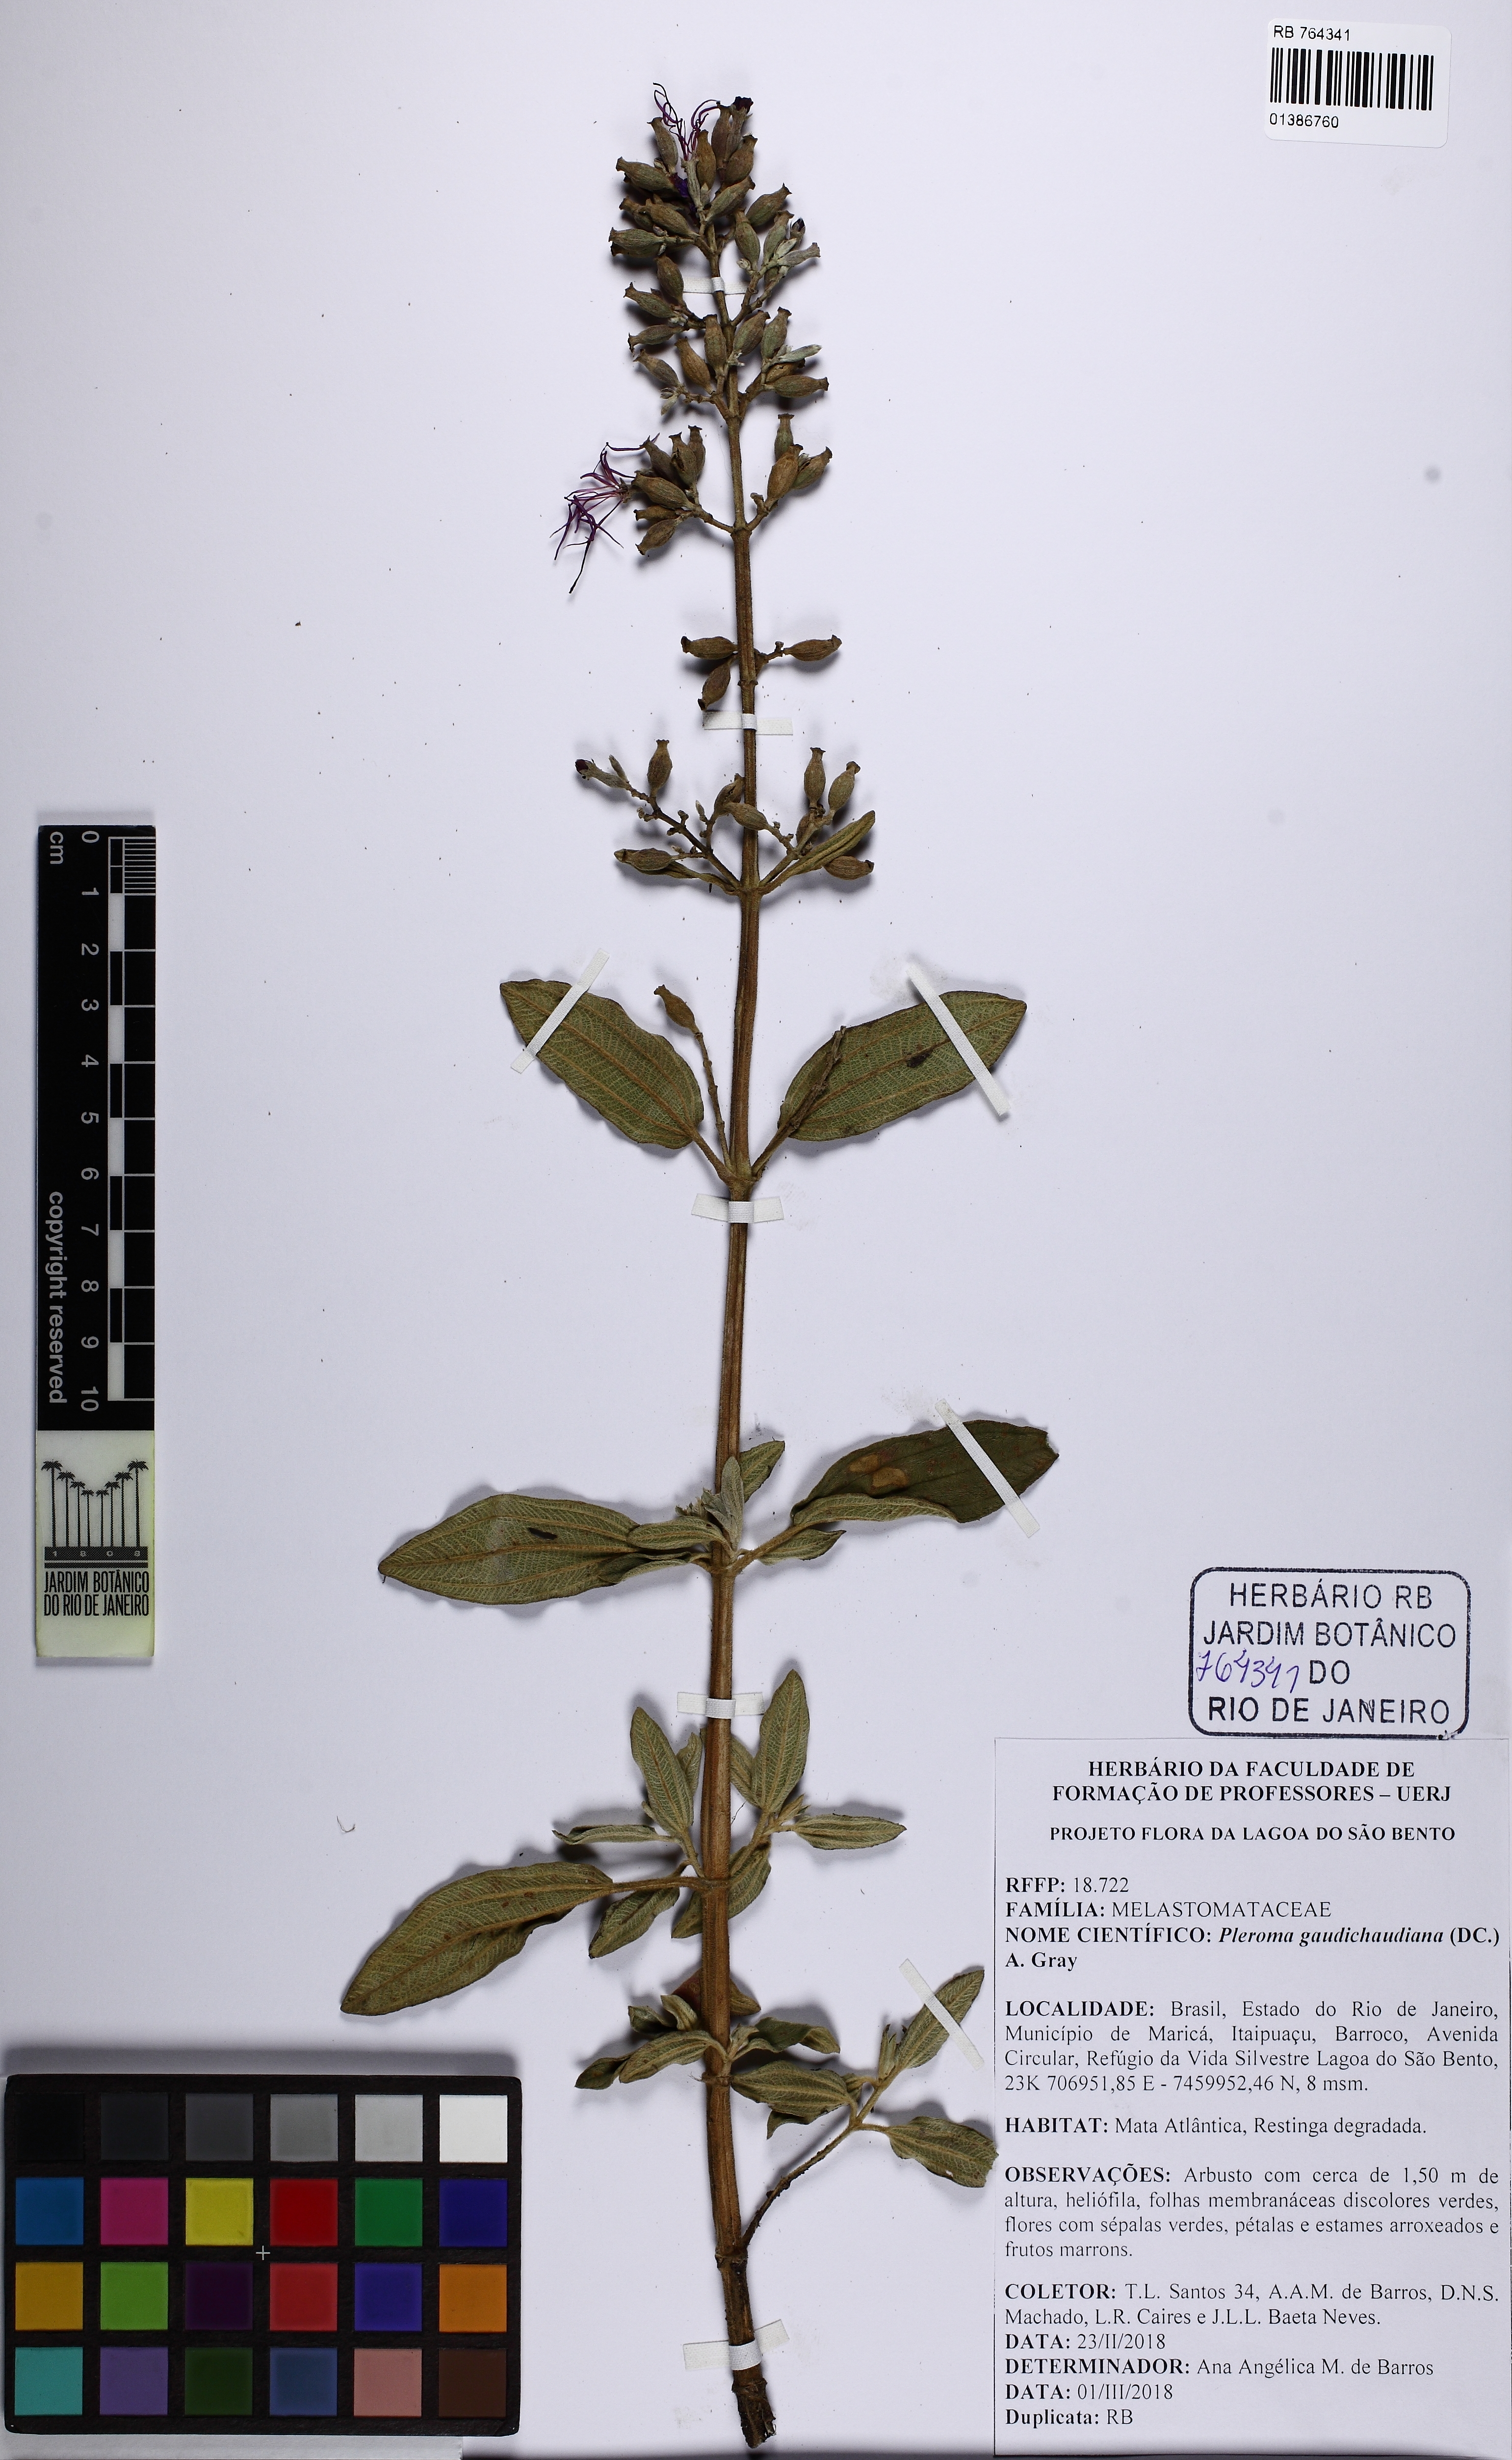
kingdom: Plantae
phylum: Tracheophyta
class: Magnoliopsida
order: Myrtales
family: Melastomataceae
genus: Pleroma
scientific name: Pleroma gaudichaudianum
